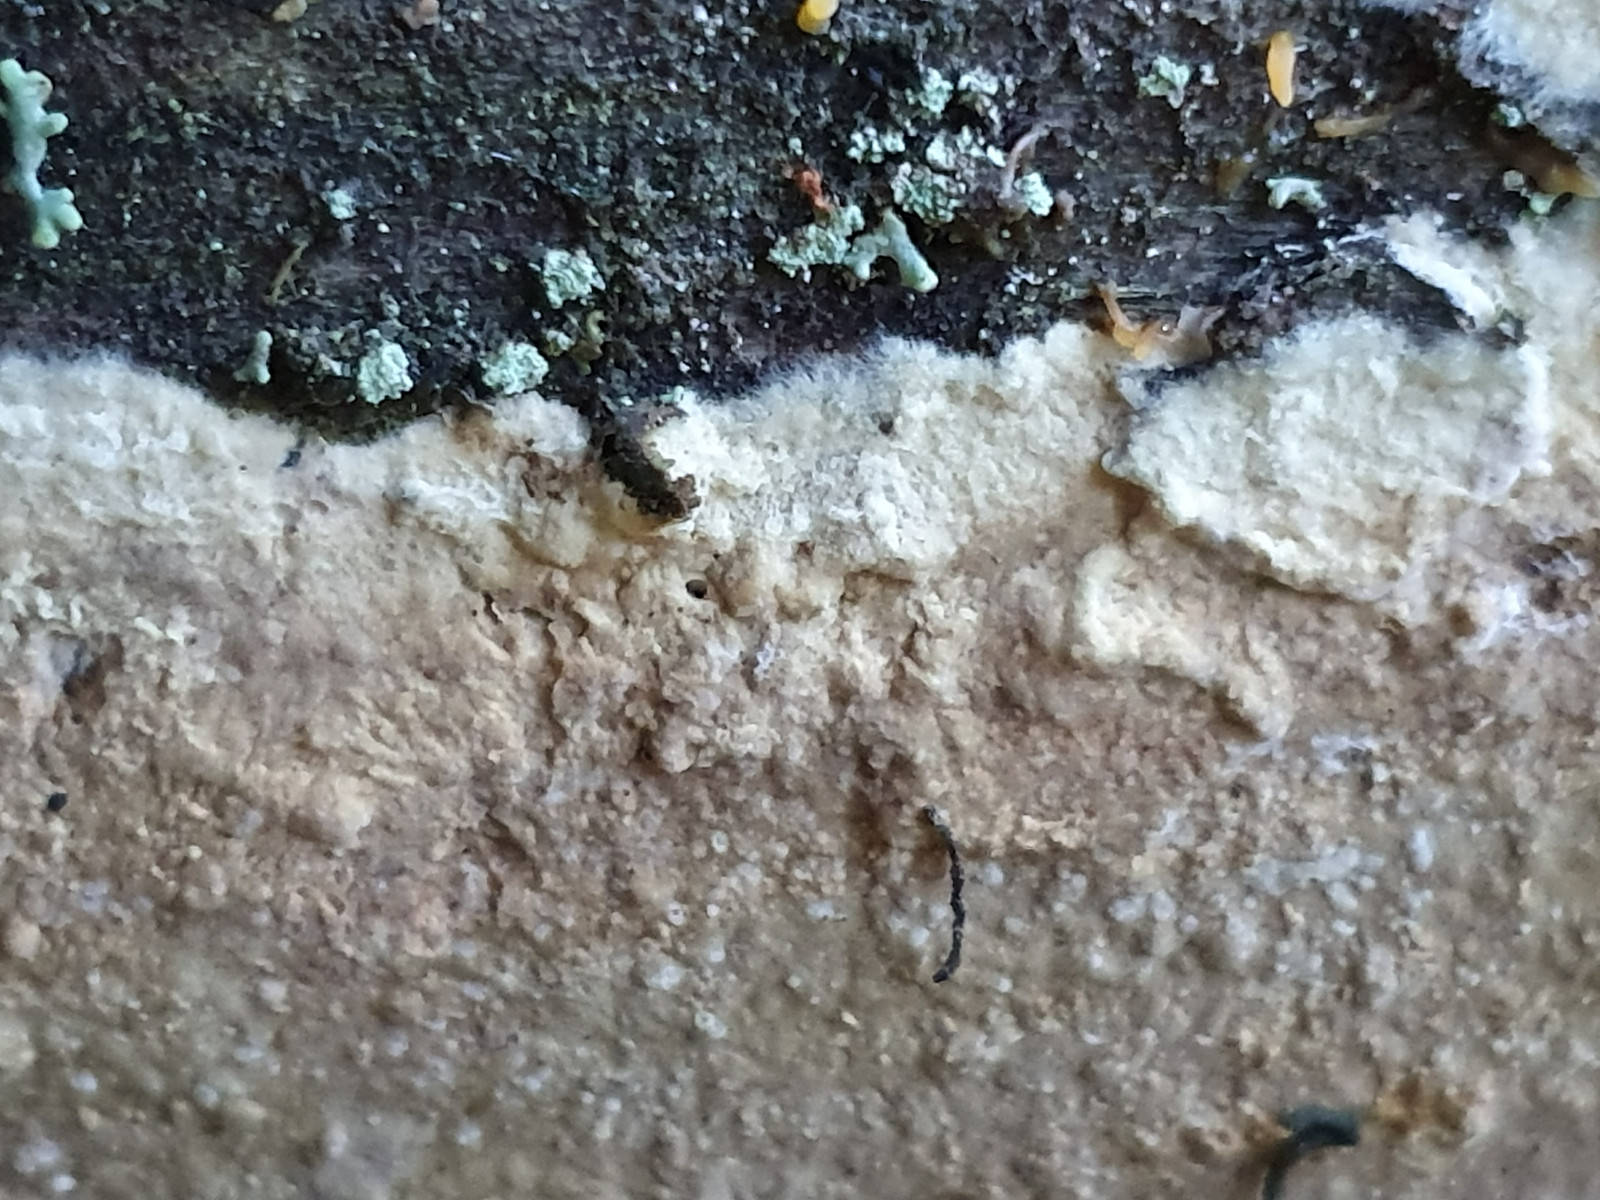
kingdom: Fungi
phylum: Basidiomycota
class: Agaricomycetes
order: Boletales
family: Coniophoraceae
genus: Coniophora
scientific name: Coniophora
